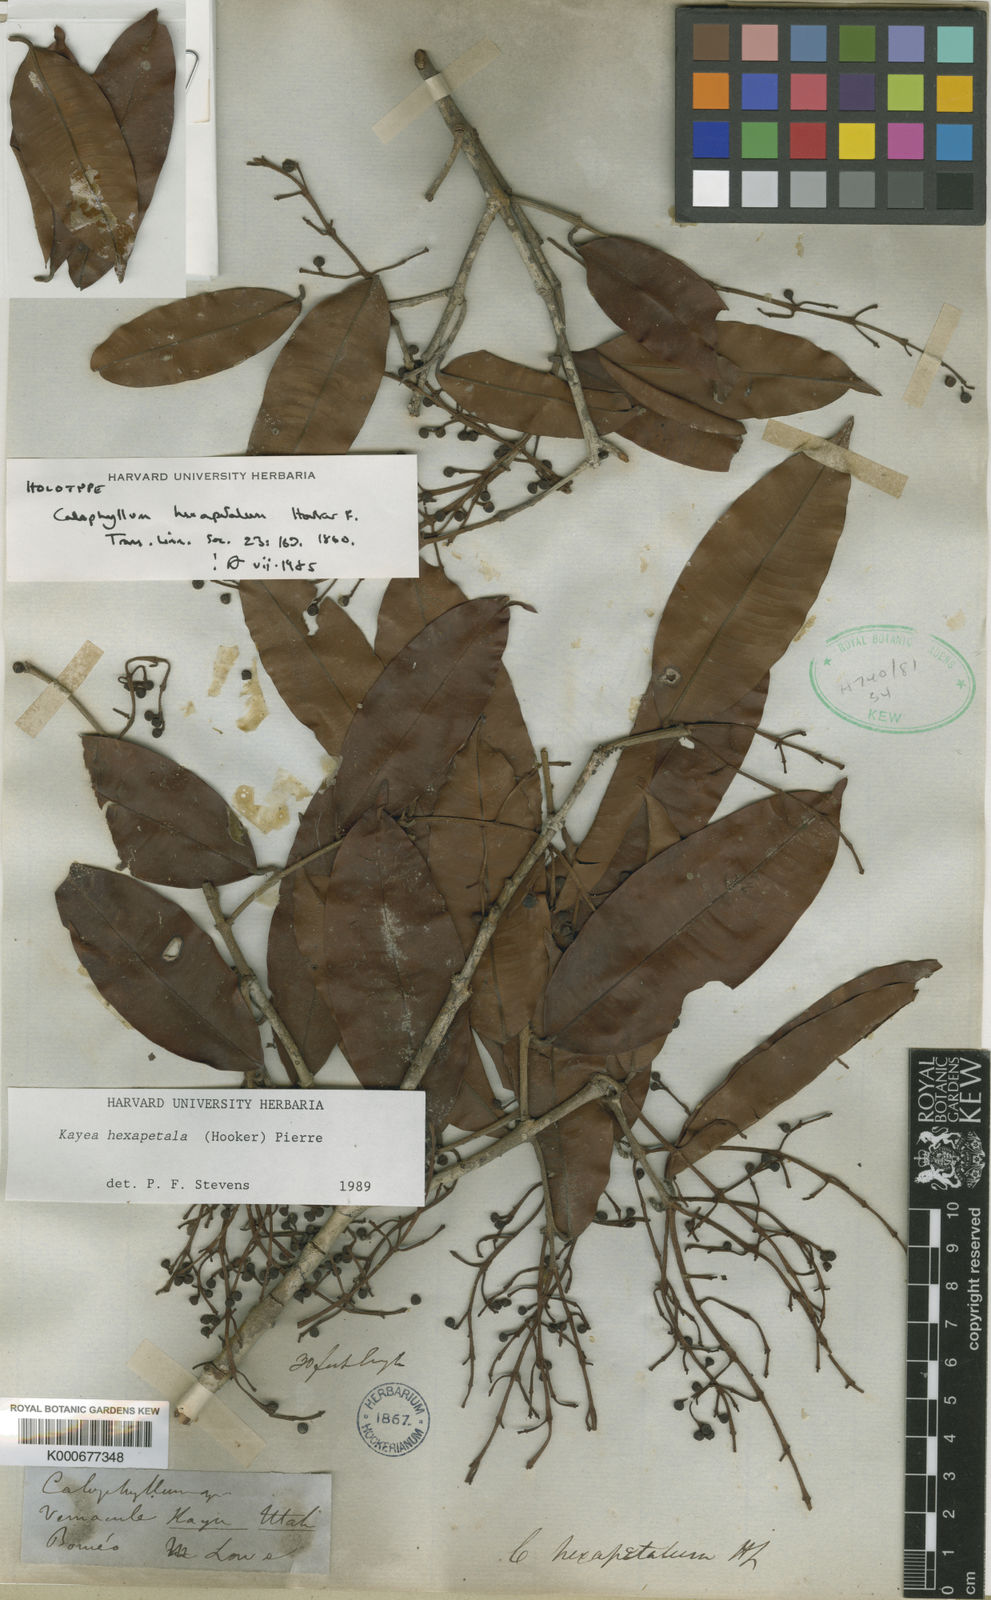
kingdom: Plantae
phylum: Tracheophyta
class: Magnoliopsida
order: Malpighiales
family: Calophyllaceae
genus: Kayea
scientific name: Kayea hexapetala
